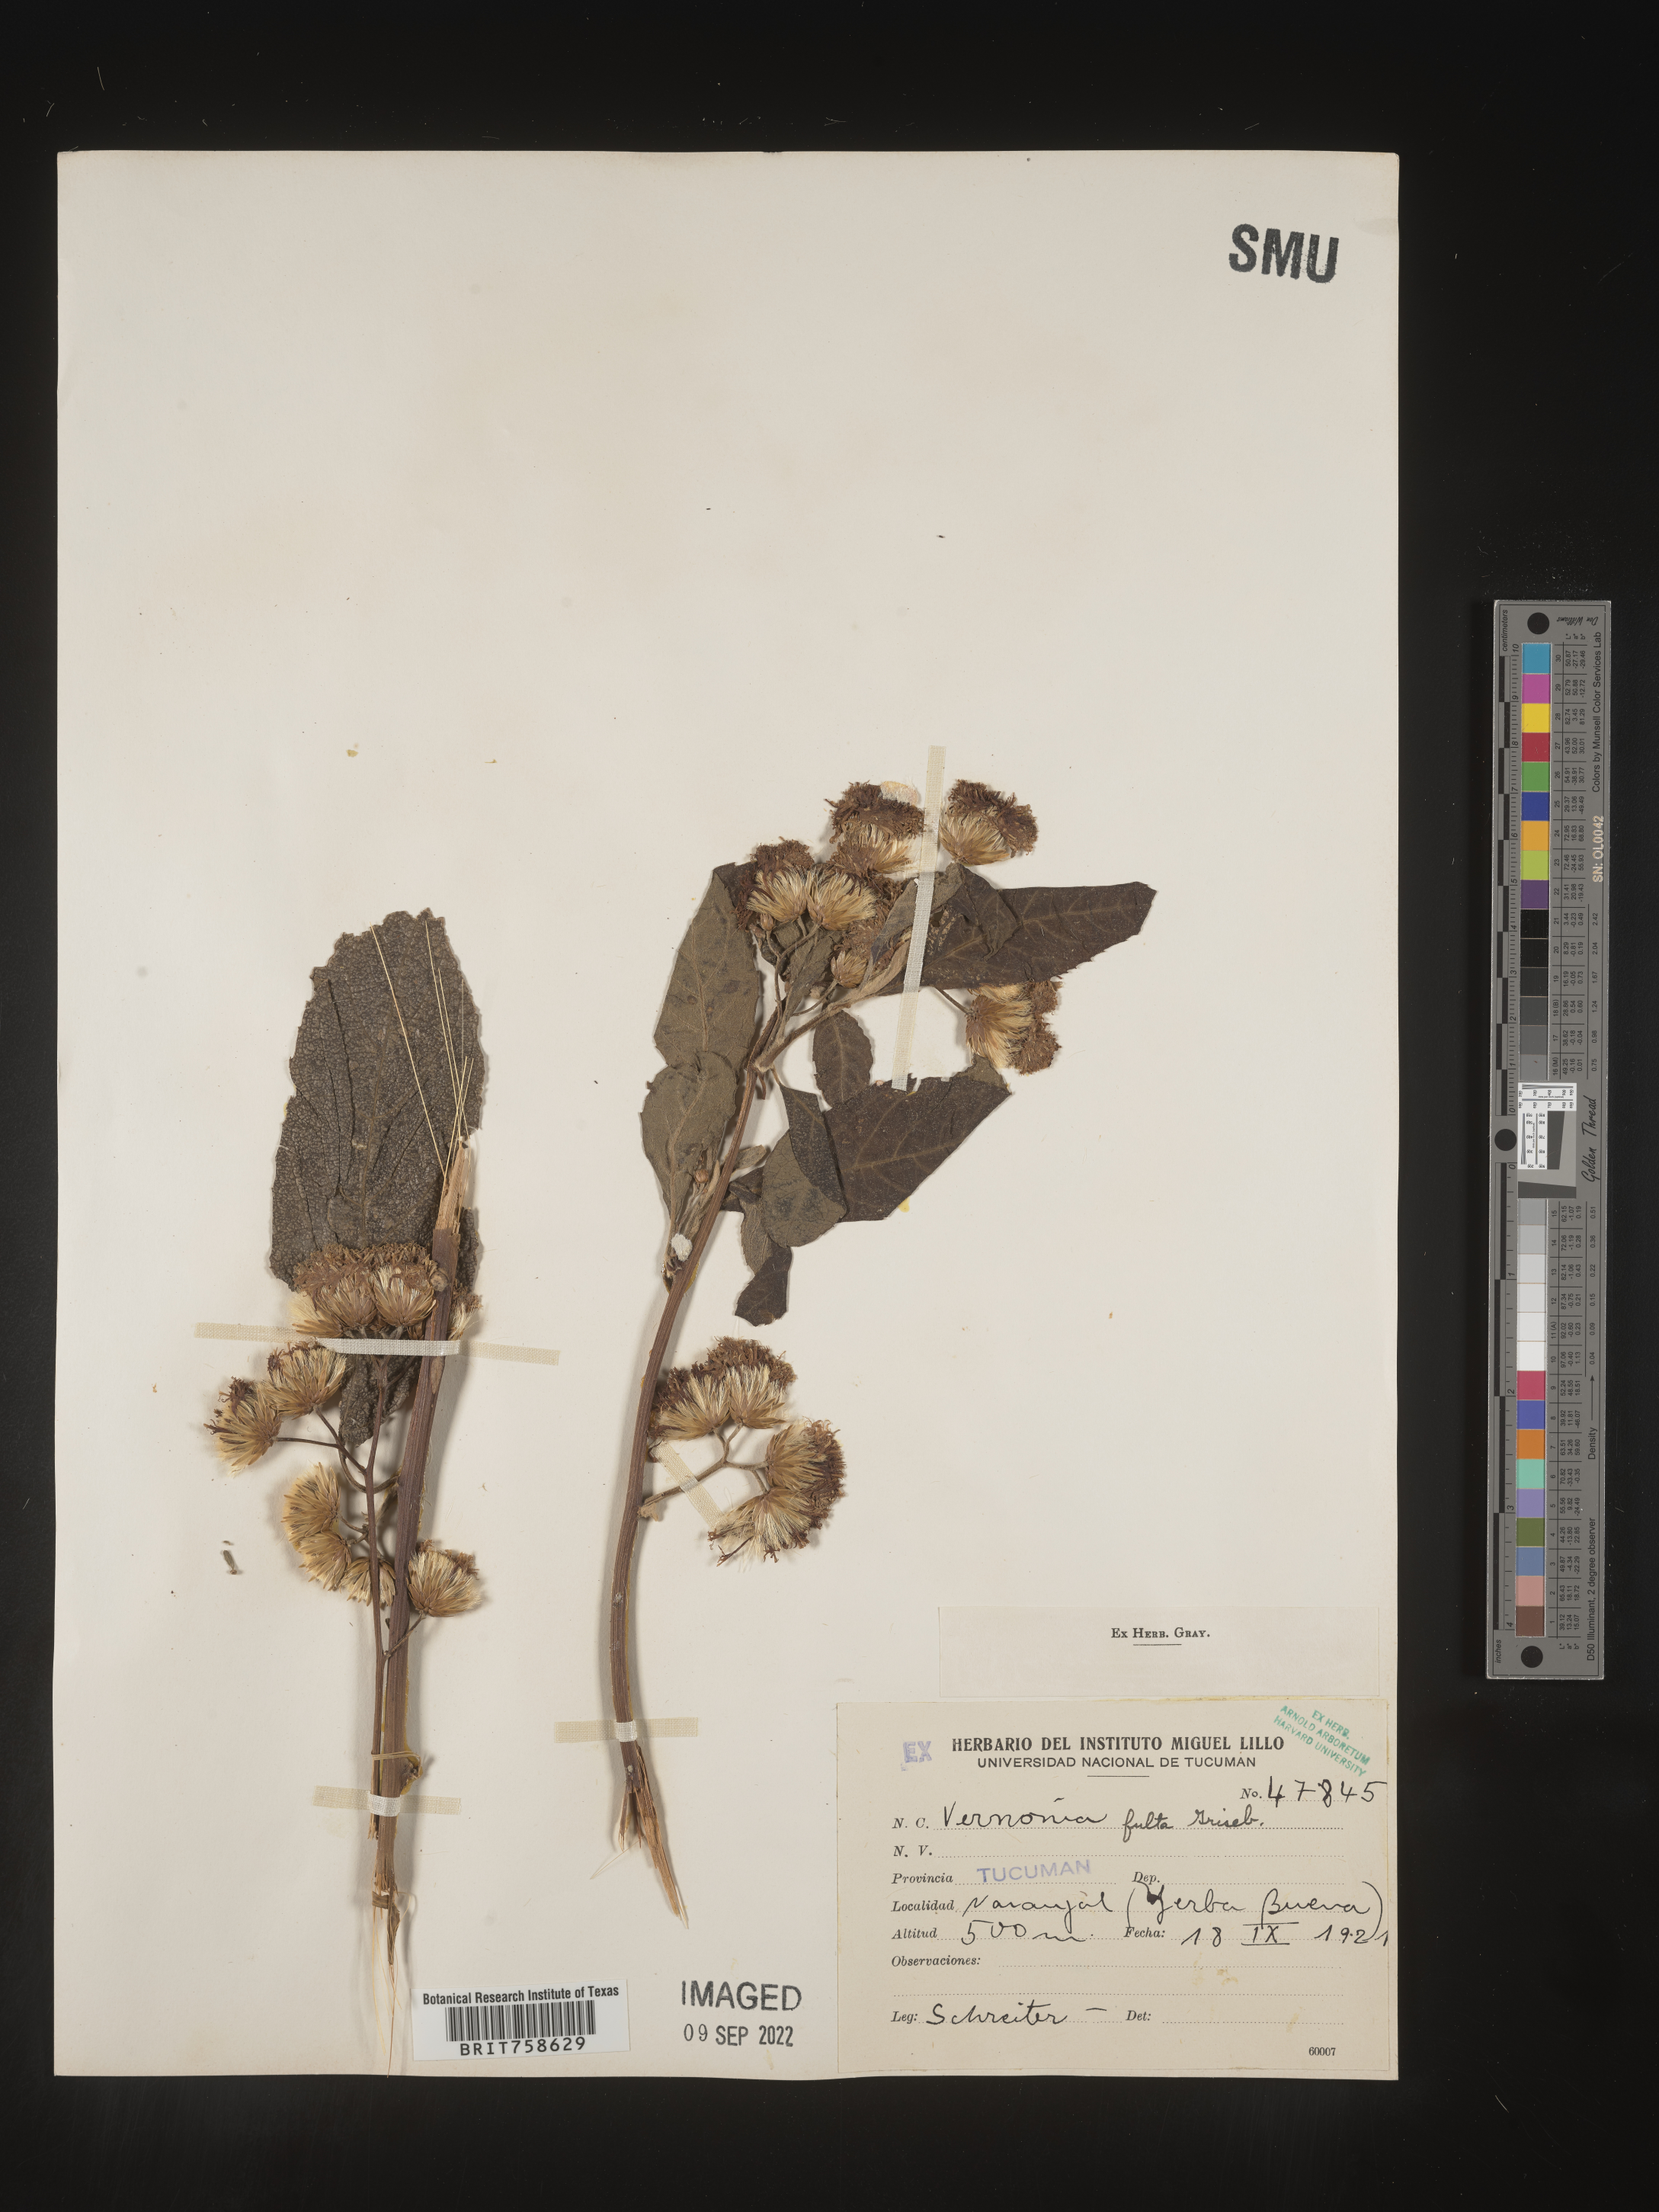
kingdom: Plantae
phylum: Tracheophyta
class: Magnoliopsida
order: Asterales
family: Asteraceae
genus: Vernonia
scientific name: Vernonia
